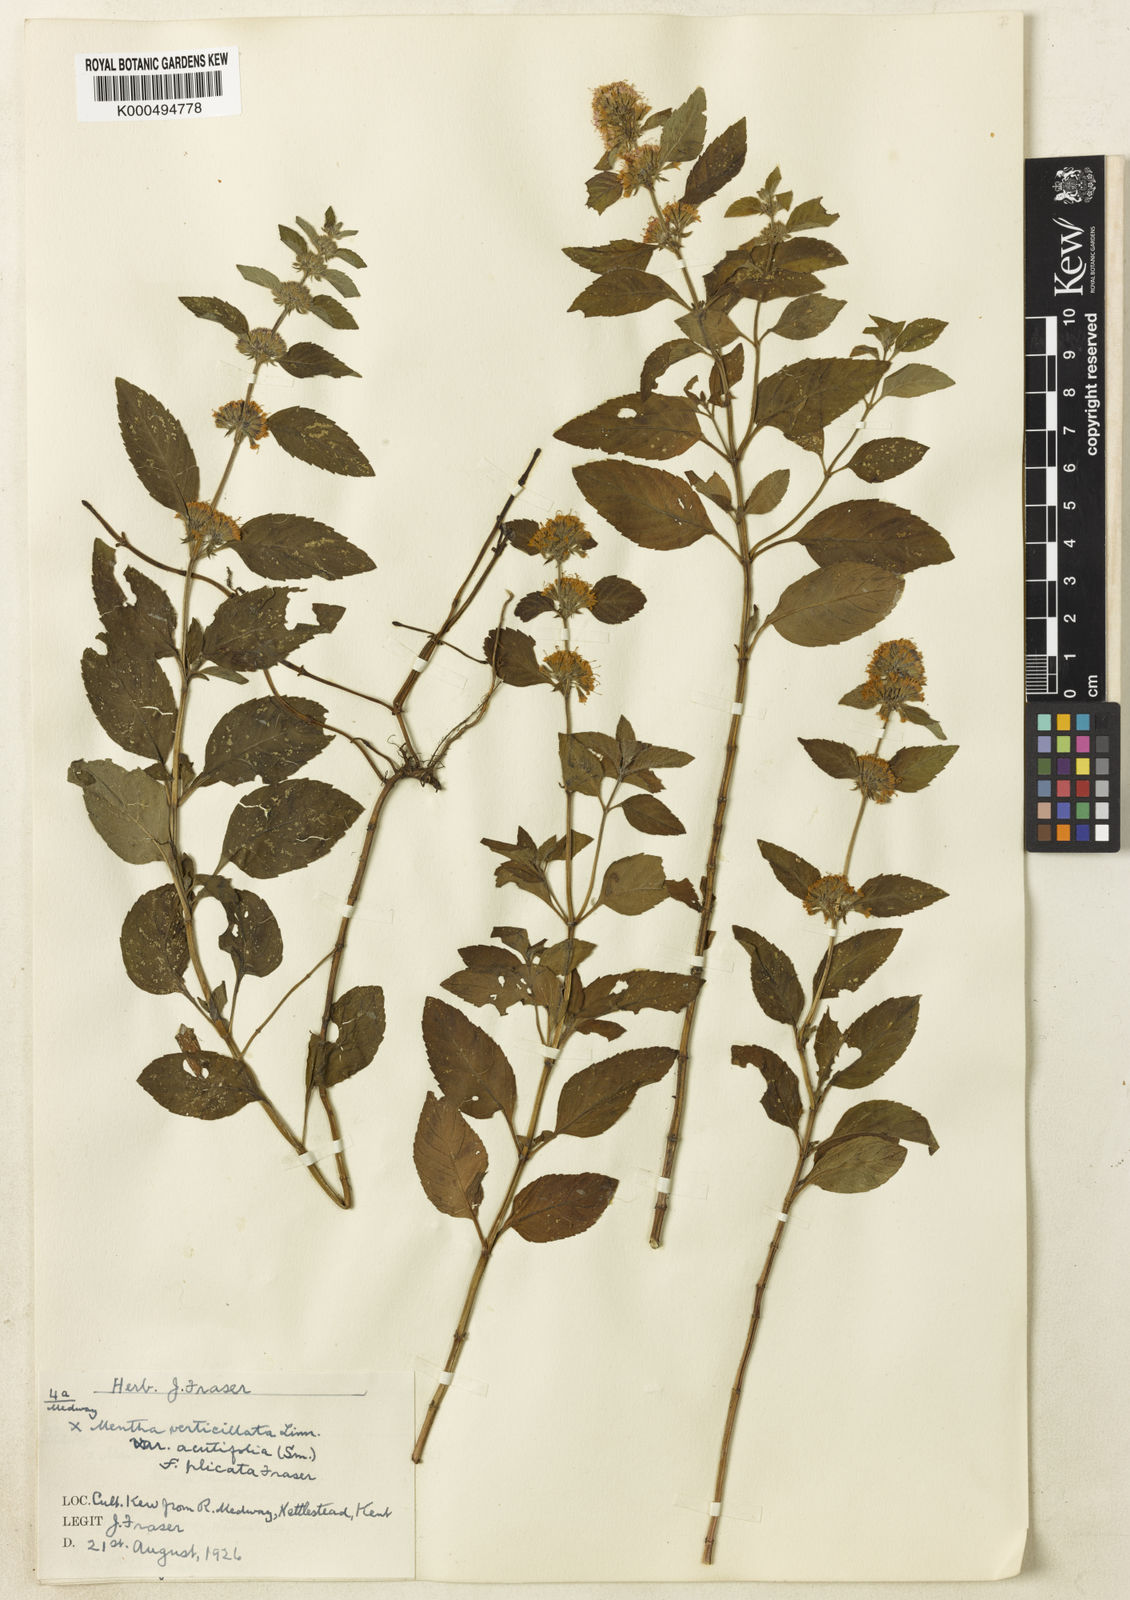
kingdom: Plantae
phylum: Tracheophyta
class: Magnoliopsida
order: Lamiales
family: Lamiaceae
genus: Mentha
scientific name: Mentha verticillata
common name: Mint
